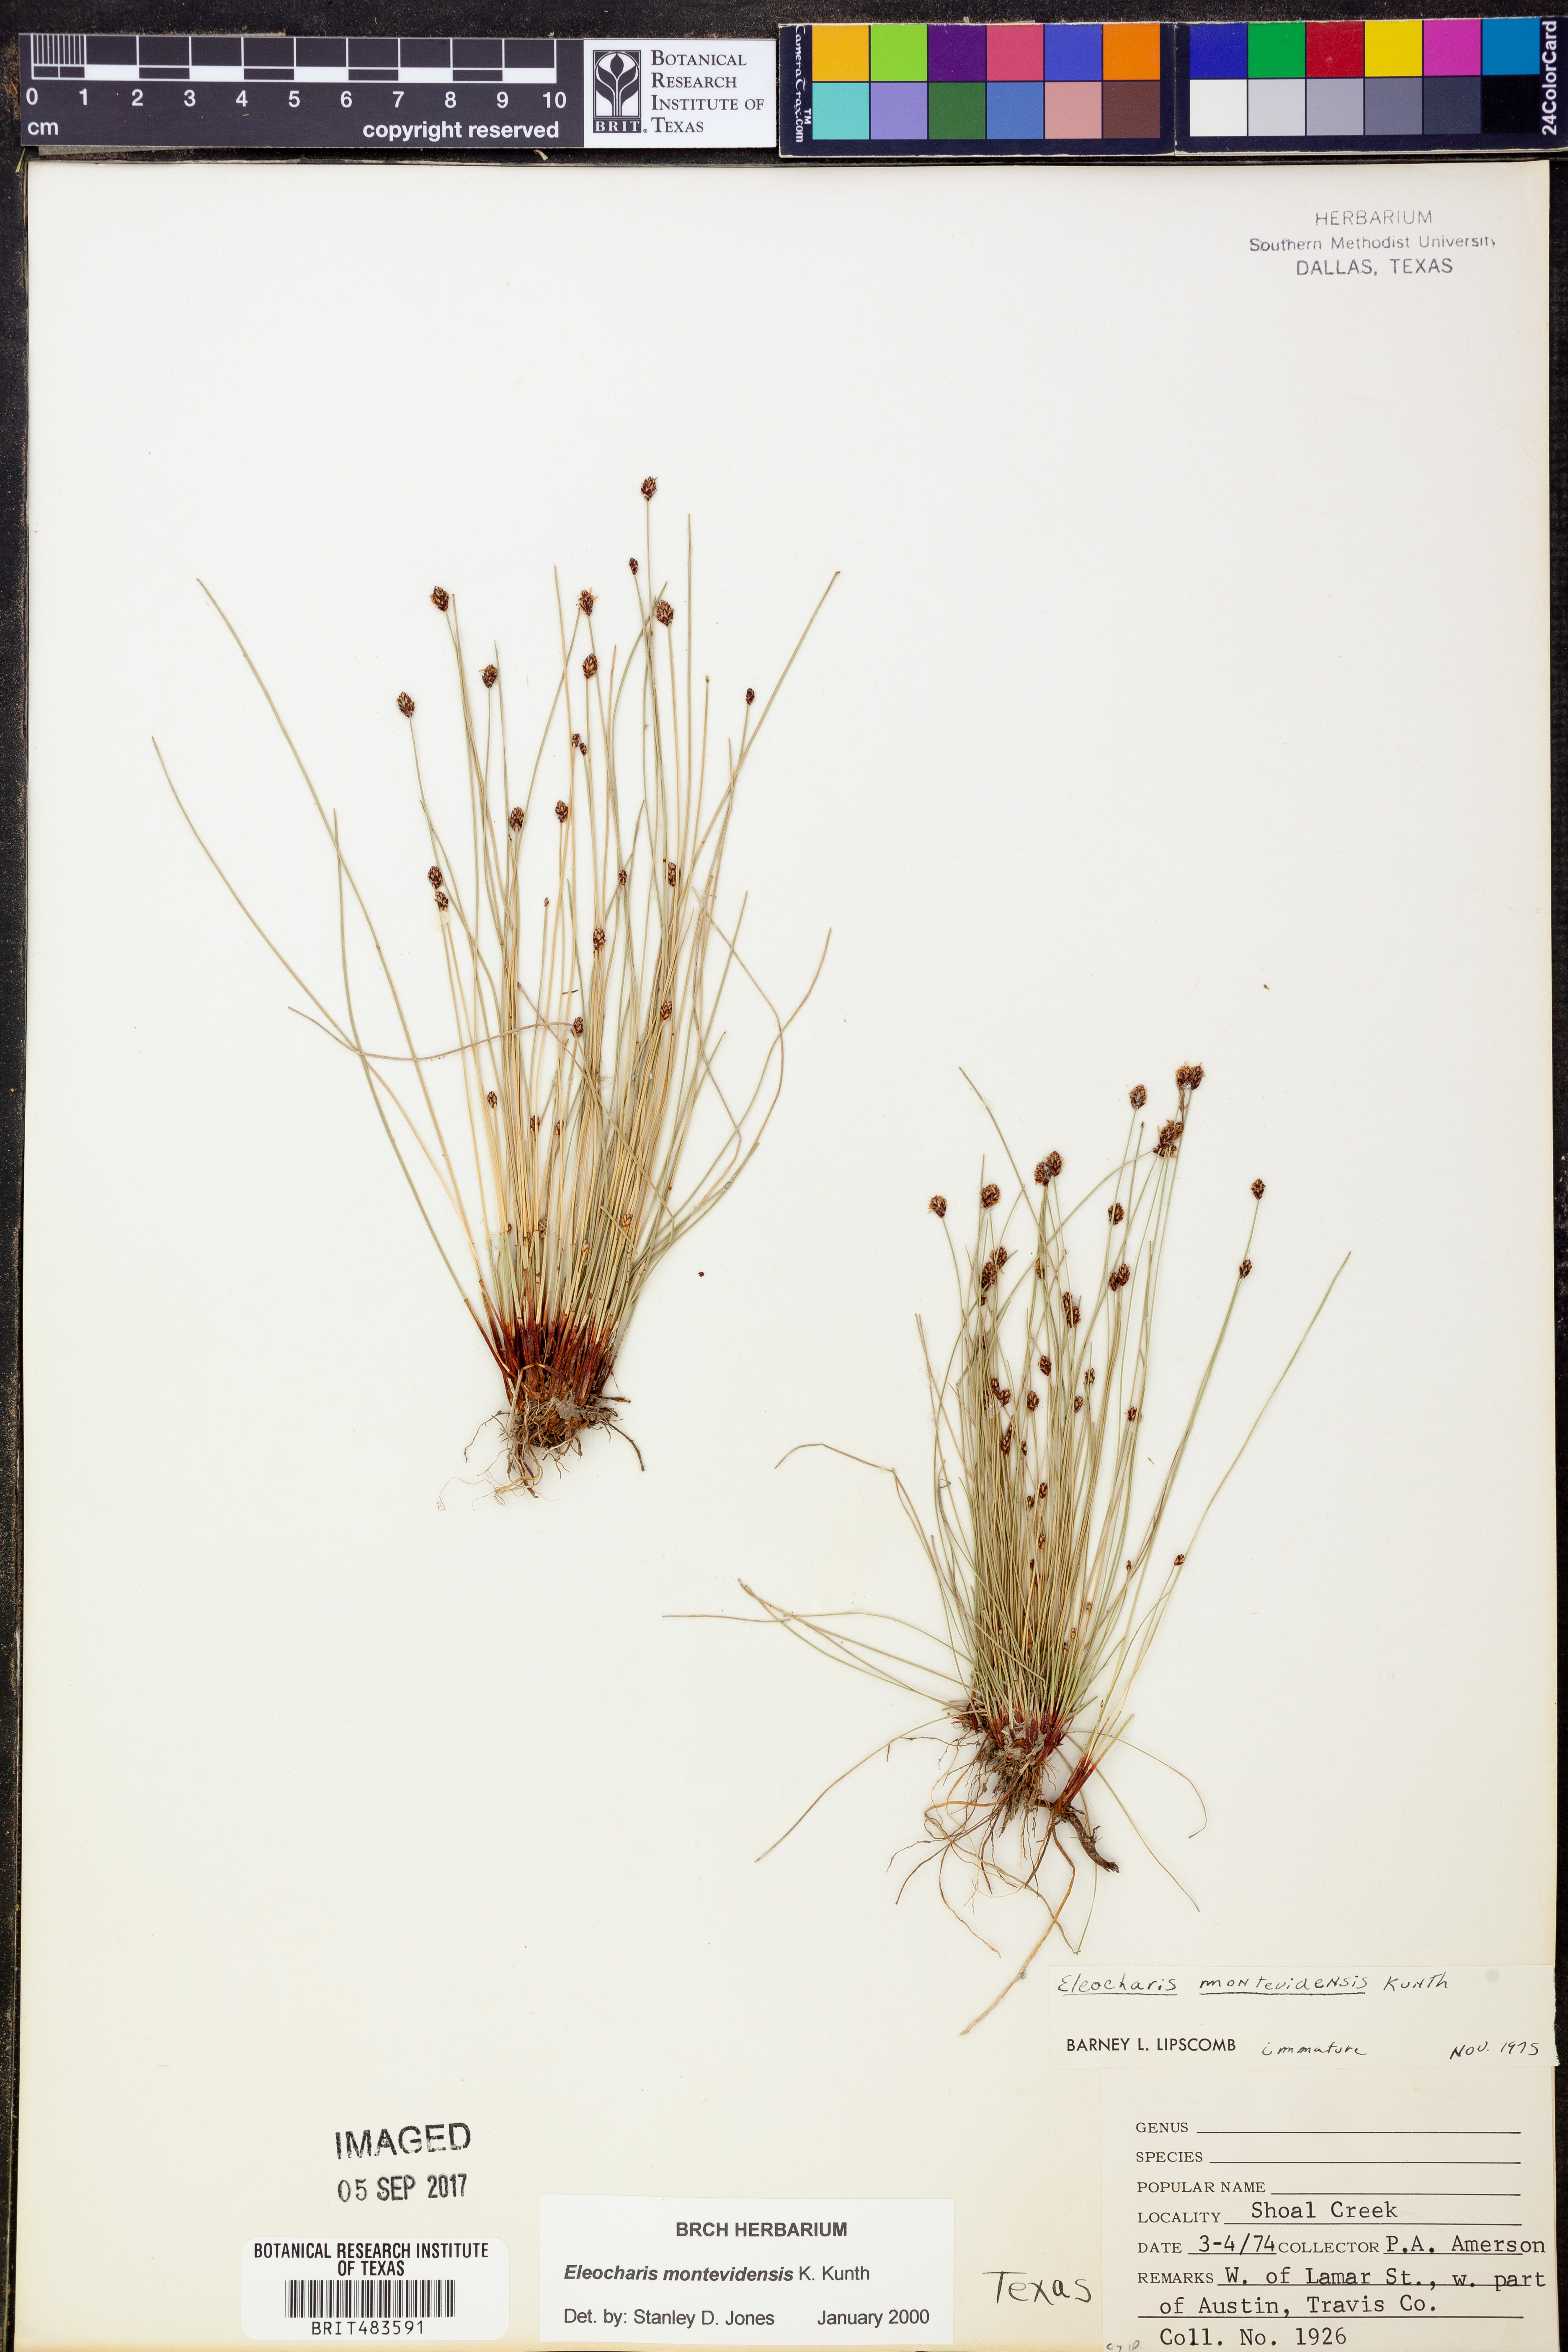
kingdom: Plantae
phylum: Tracheophyta
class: Liliopsida
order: Poales
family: Cyperaceae
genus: Eleocharis
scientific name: Eleocharis montevidensis
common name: Sand spike-rush
